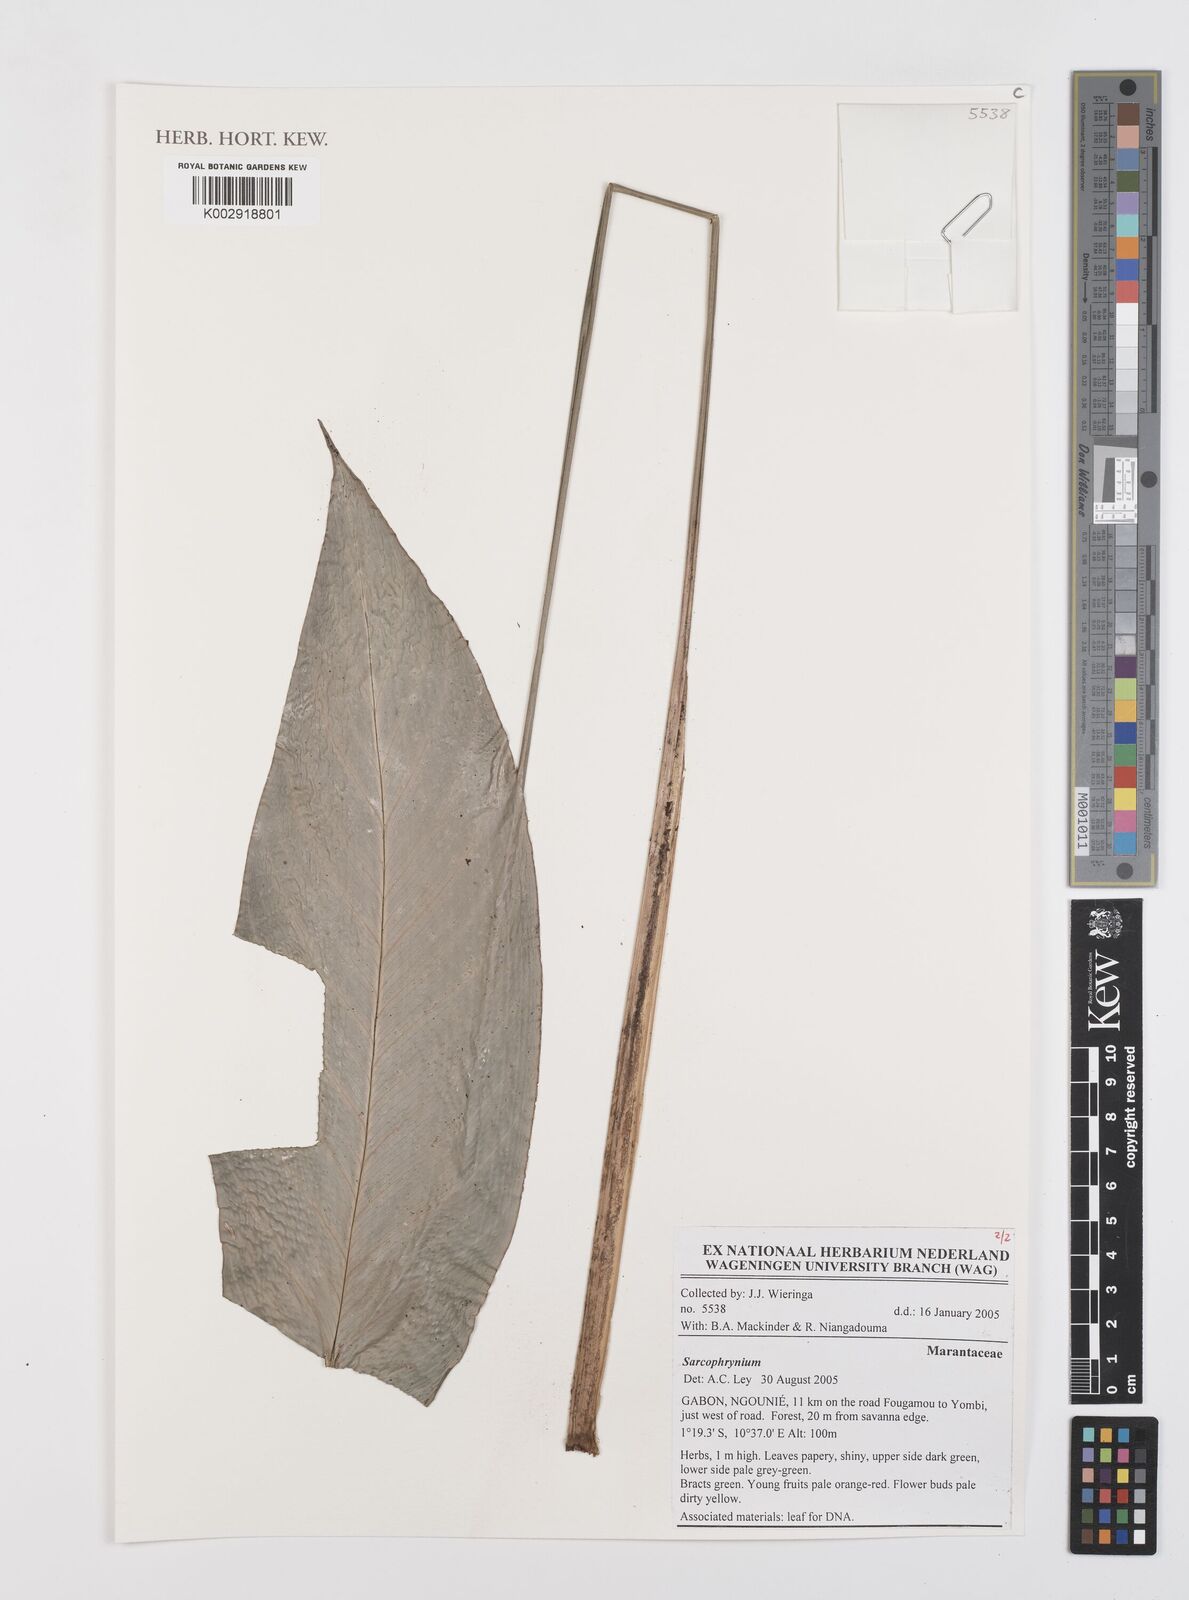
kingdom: Plantae
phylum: Tracheophyta
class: Liliopsida
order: Zingiberales
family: Marantaceae
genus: Sarcophrynium
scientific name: Sarcophrynium
